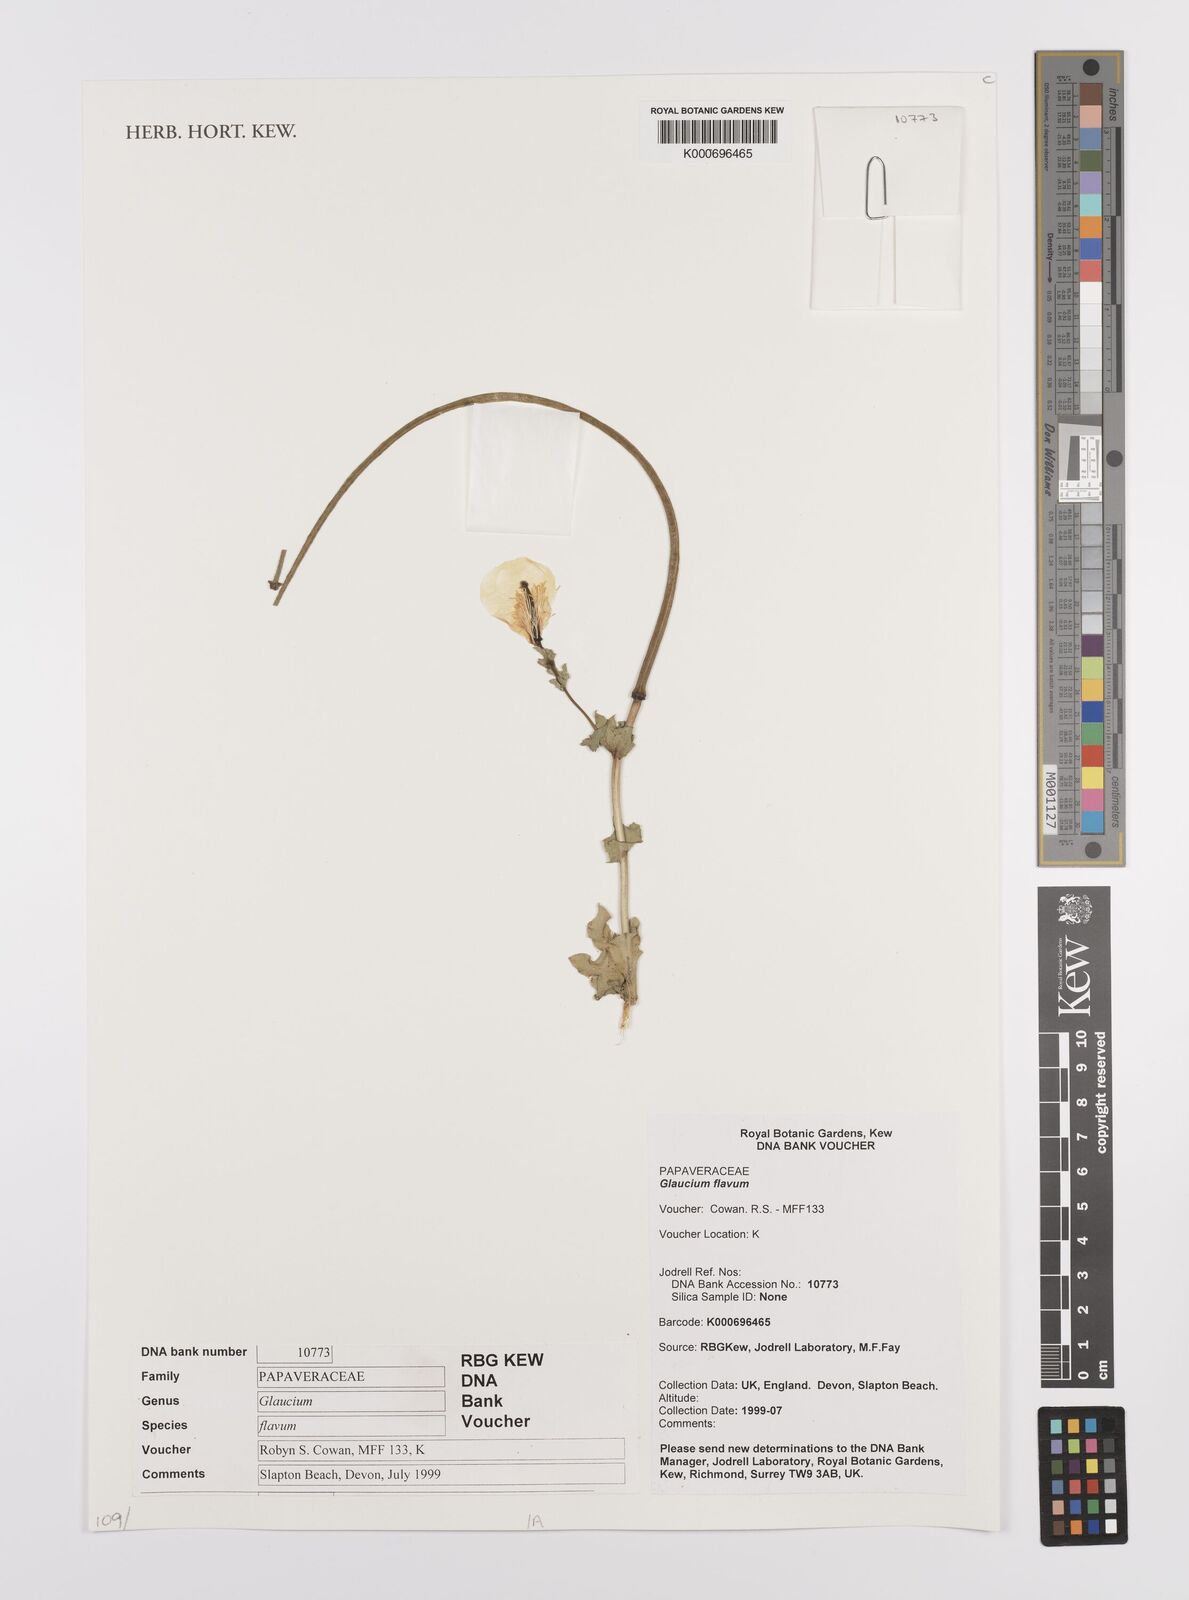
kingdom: Plantae
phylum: Tracheophyta
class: Magnoliopsida
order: Ranunculales
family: Papaveraceae
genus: Glaucium
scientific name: Glaucium flavum
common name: Yellow horned-poppy
